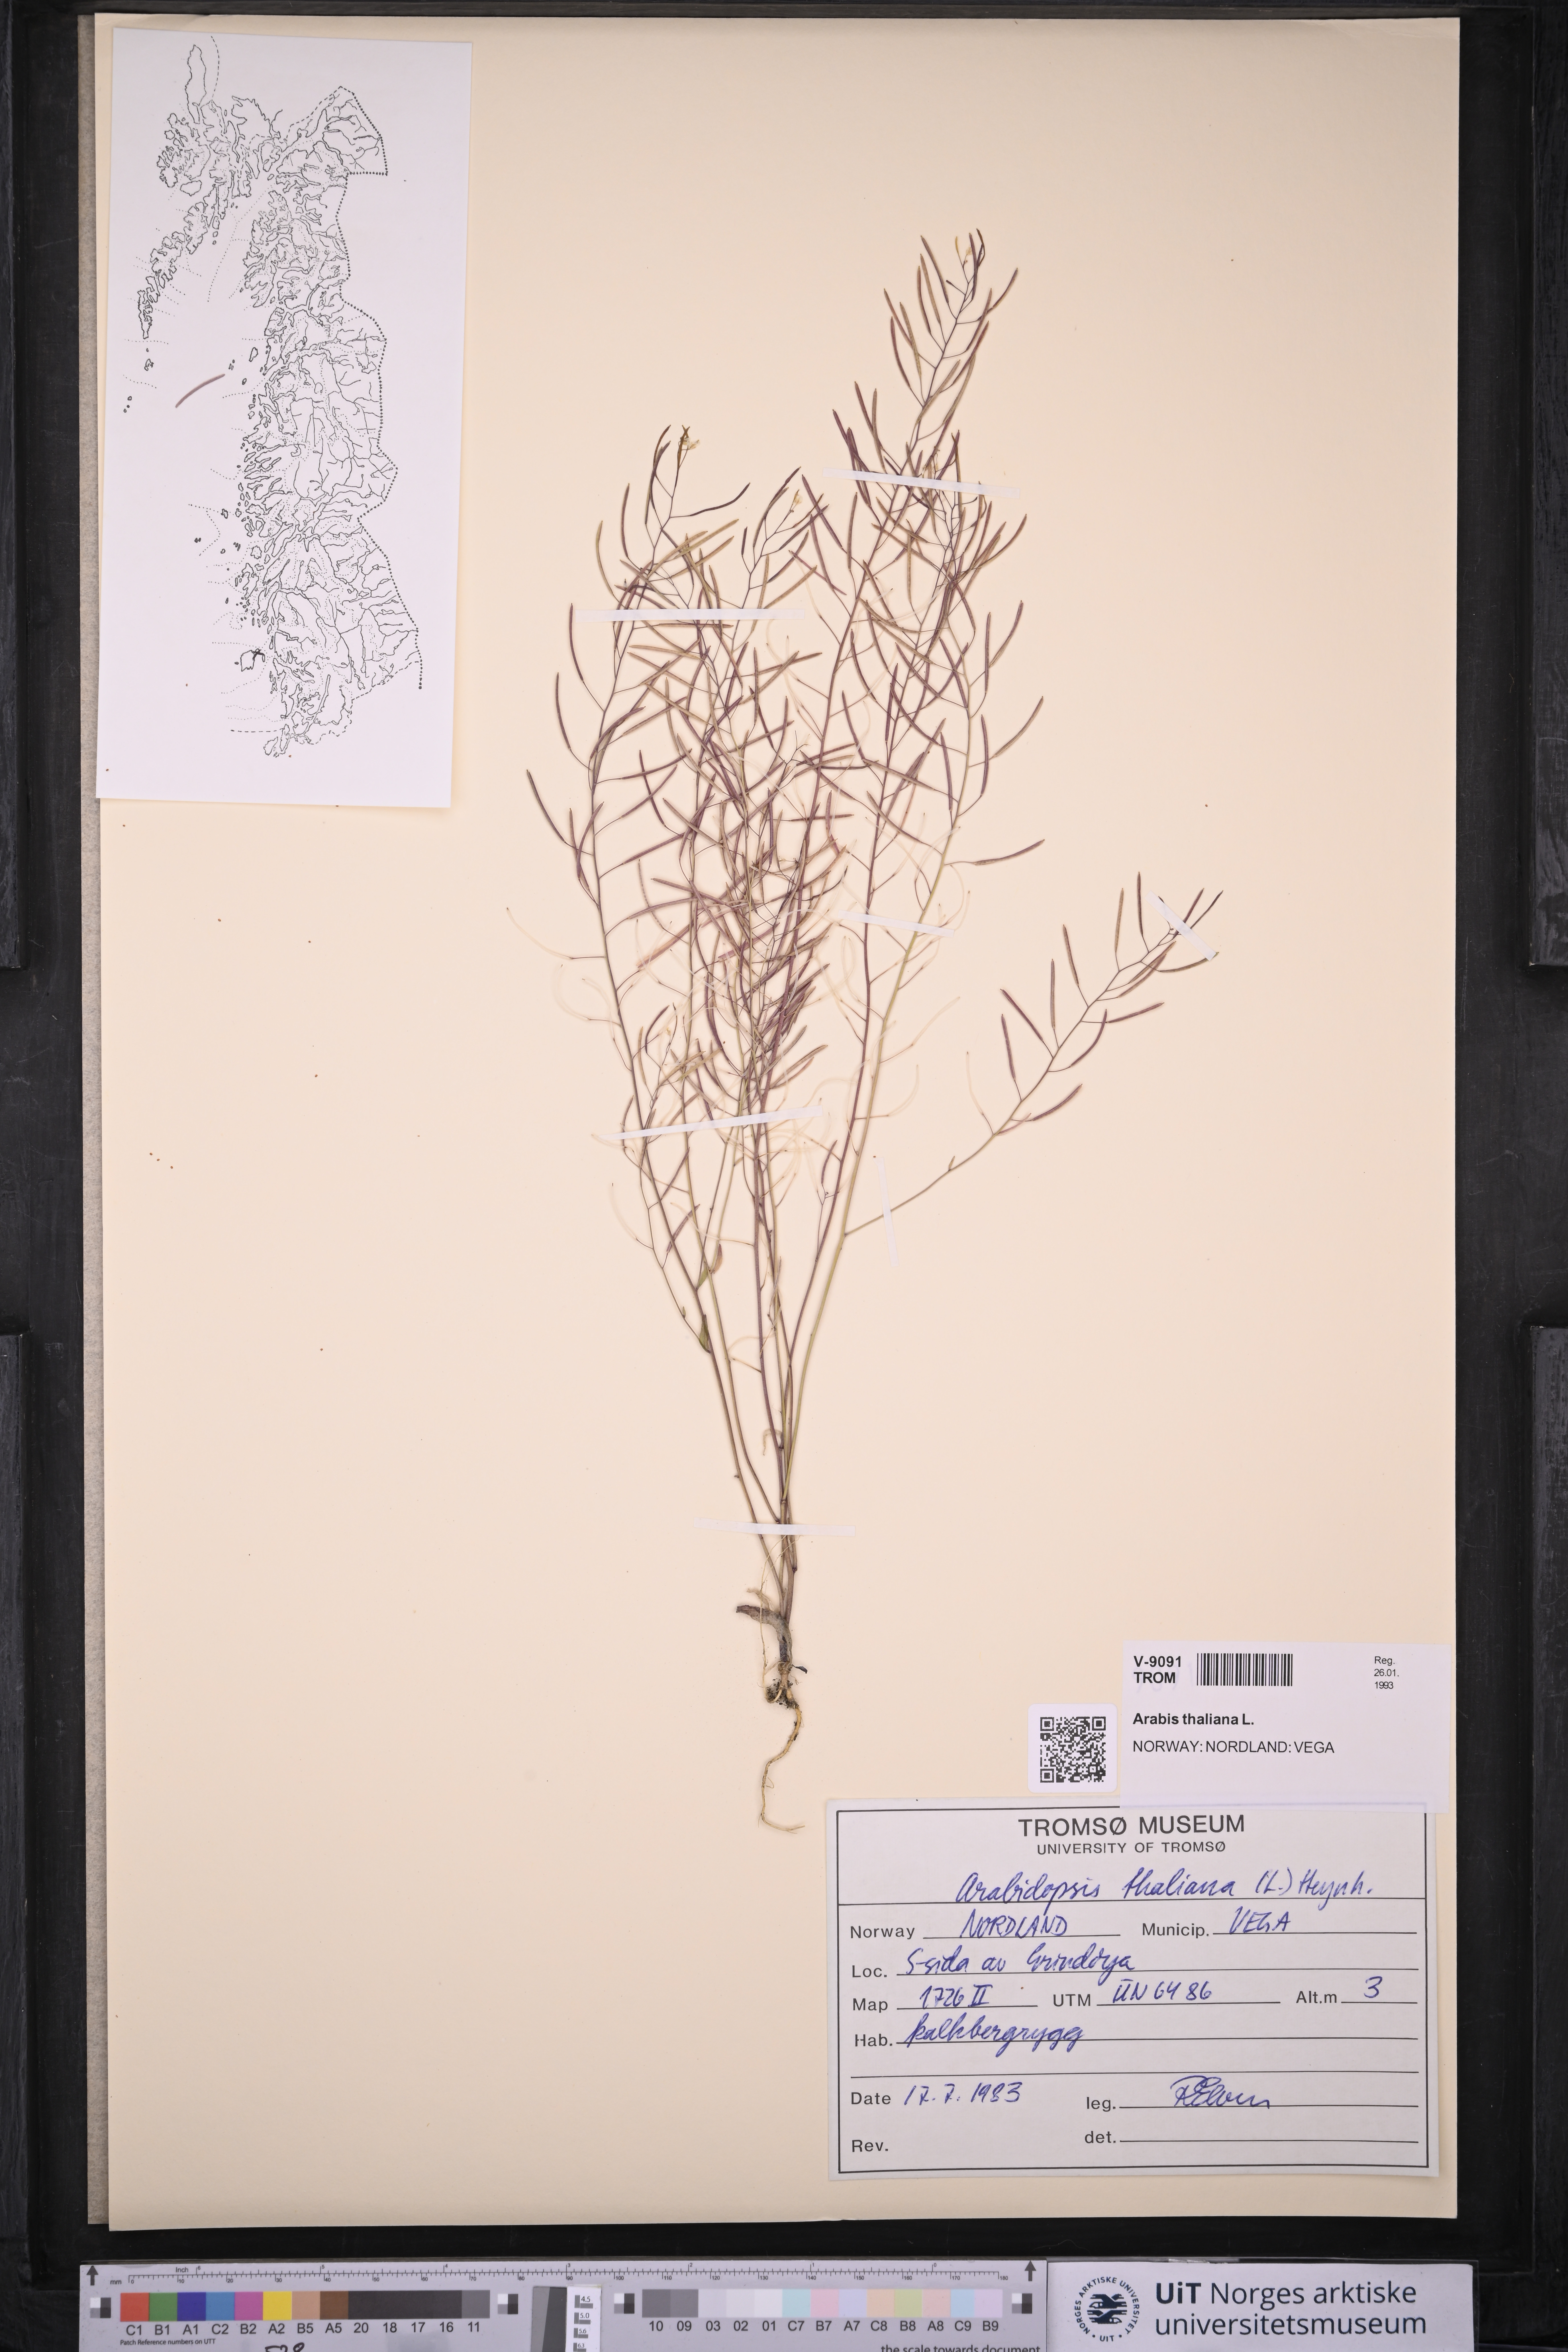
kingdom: Plantae
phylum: Tracheophyta
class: Magnoliopsida
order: Brassicales
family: Brassicaceae
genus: Arabidopsis
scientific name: Arabidopsis thaliana
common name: Thale cress
